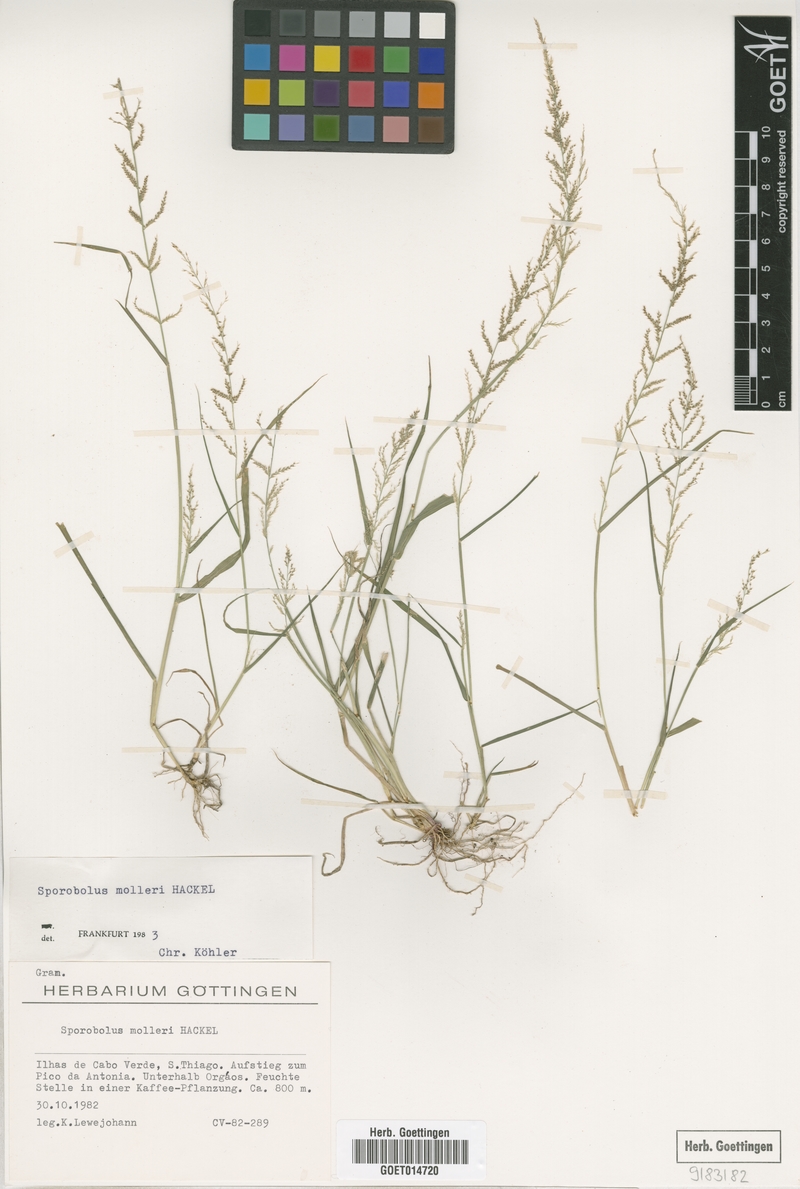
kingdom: Plantae
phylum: Tracheophyta
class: Liliopsida
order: Poales
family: Poaceae
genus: Sporobolus
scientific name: Sporobolus molleri
